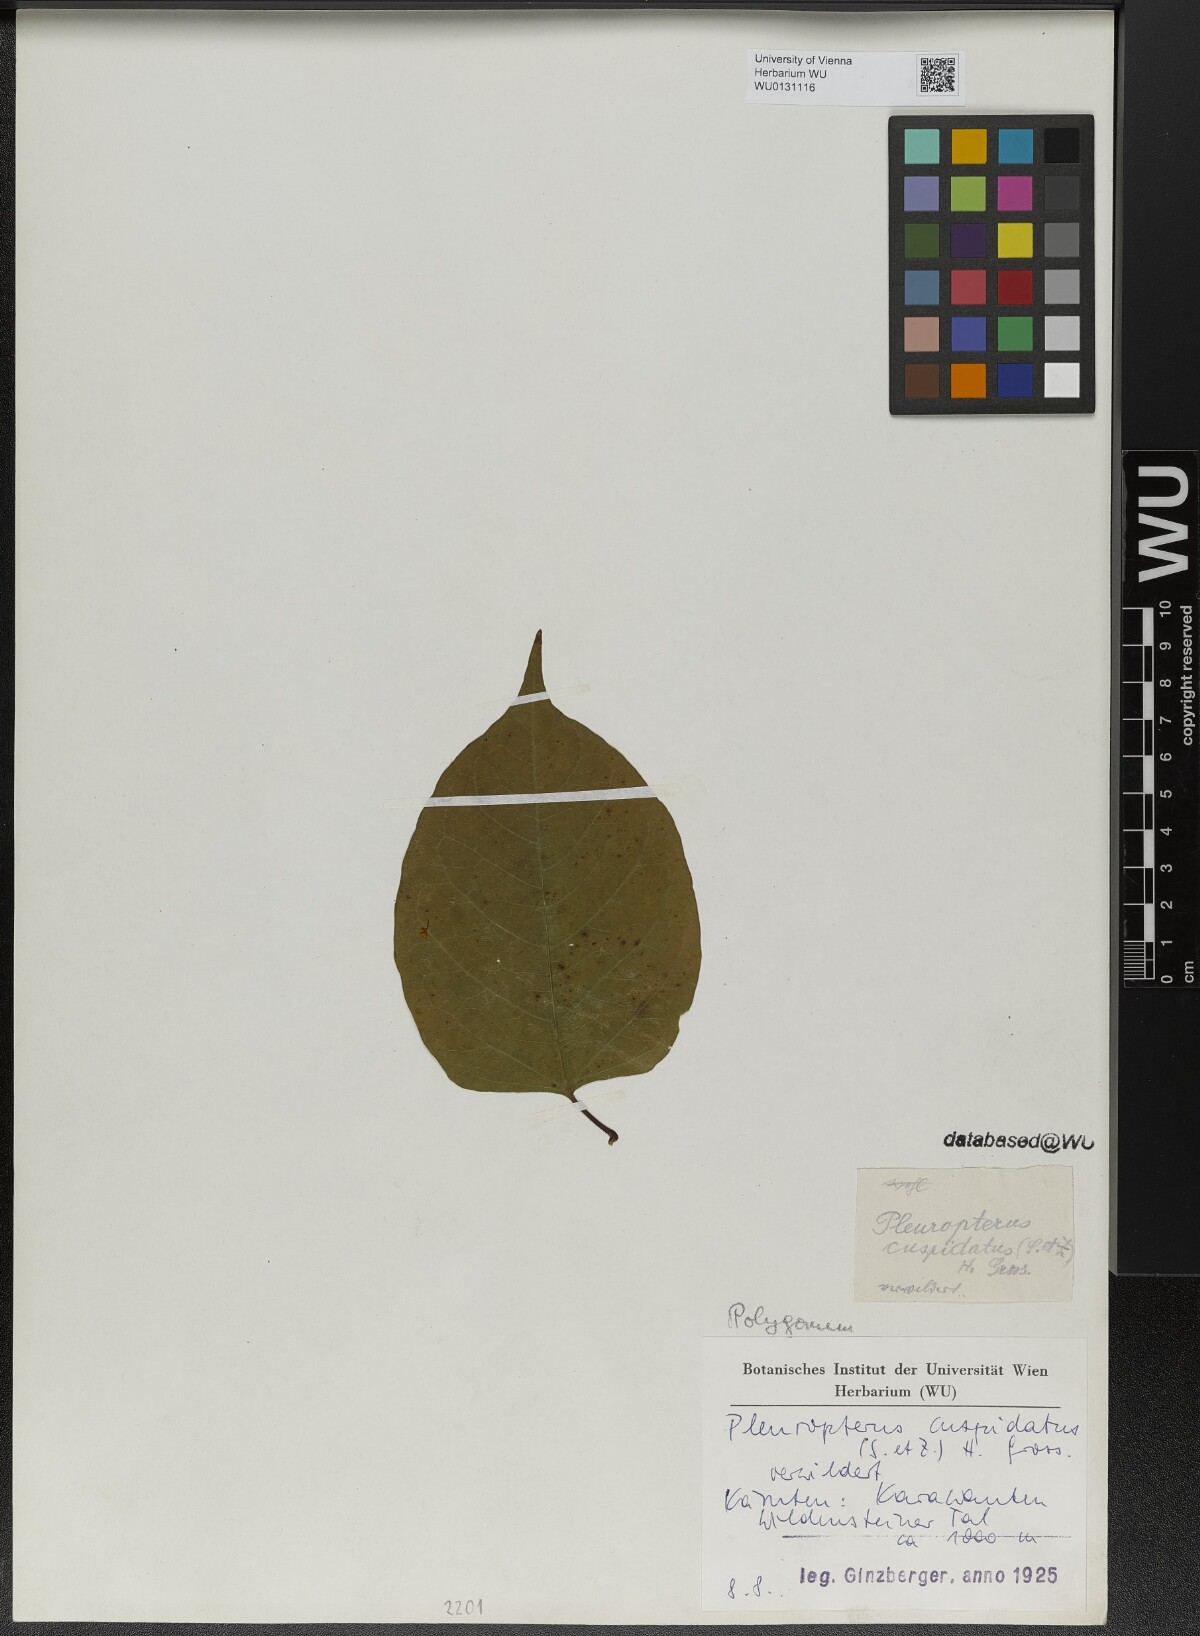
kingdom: Plantae
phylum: Tracheophyta
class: Magnoliopsida
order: Caryophyllales
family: Polygonaceae
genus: Reynoutria
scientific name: Reynoutria japonica
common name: Japanese knotweed
